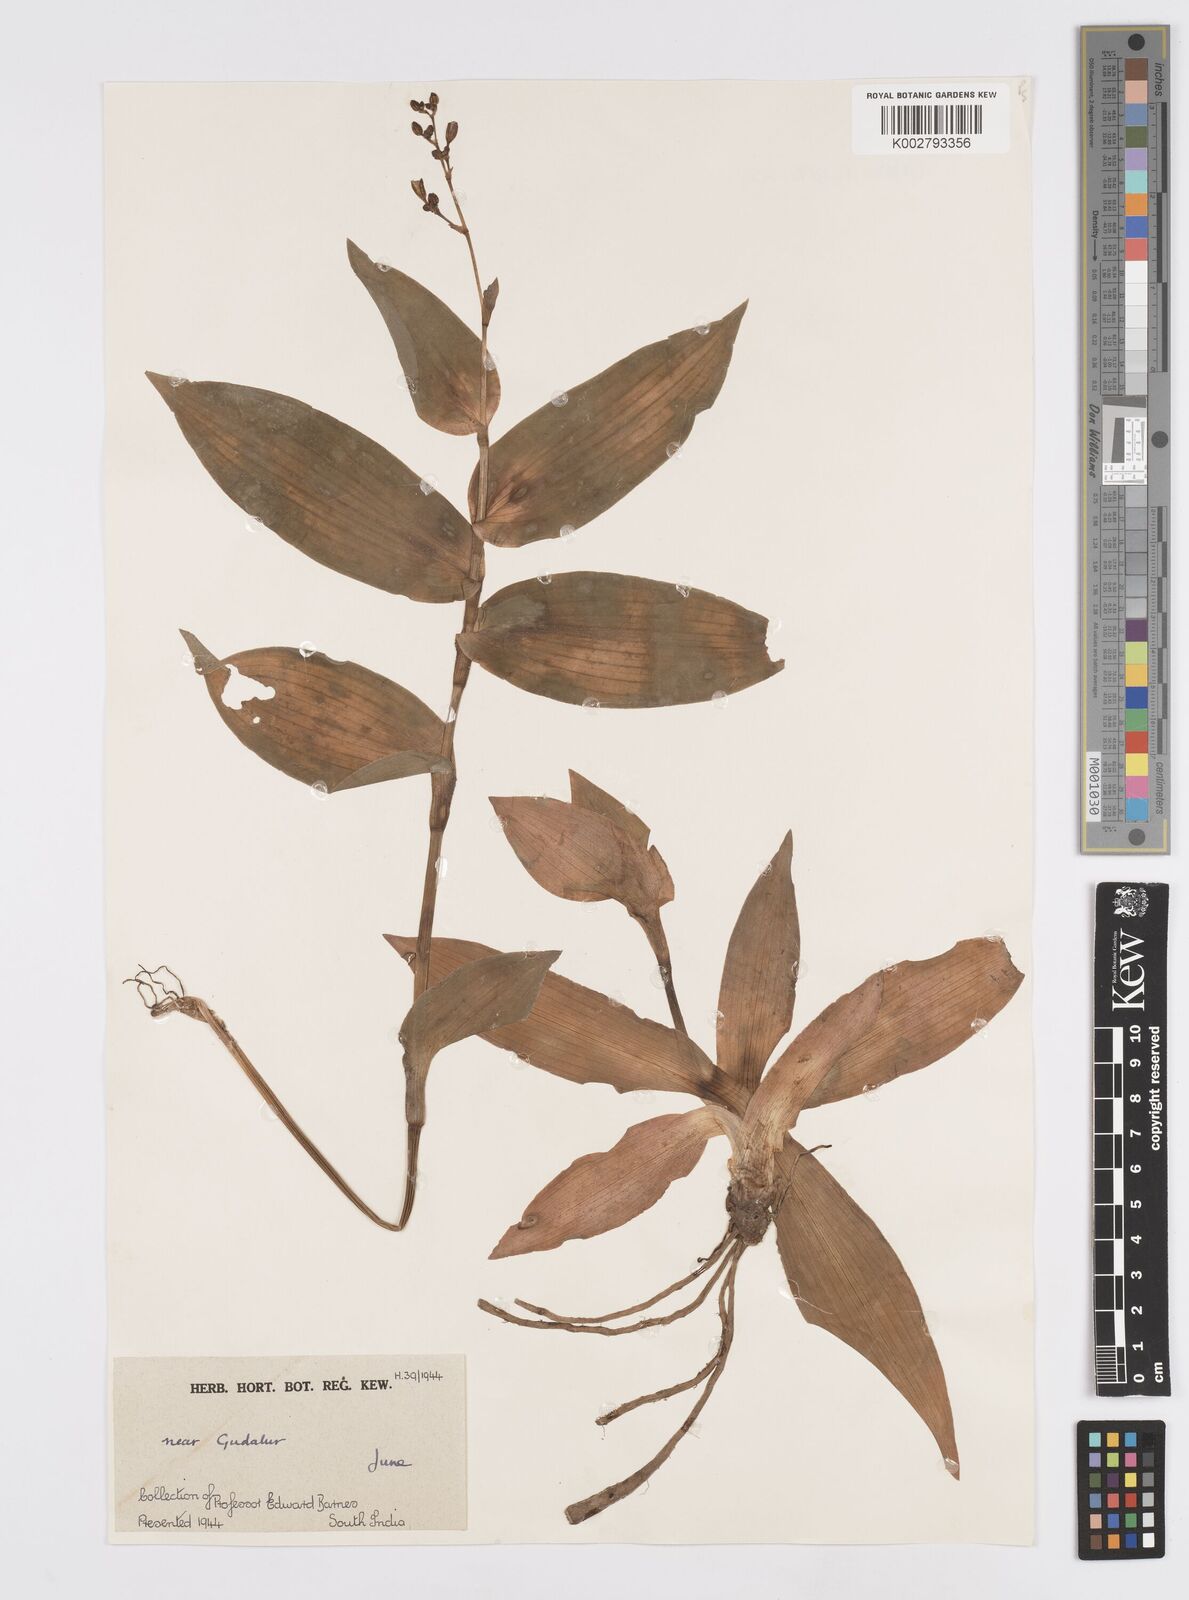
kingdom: Plantae
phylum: Tracheophyta
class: Liliopsida
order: Commelinales
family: Commelinaceae
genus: Murdannia
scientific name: Murdannia
